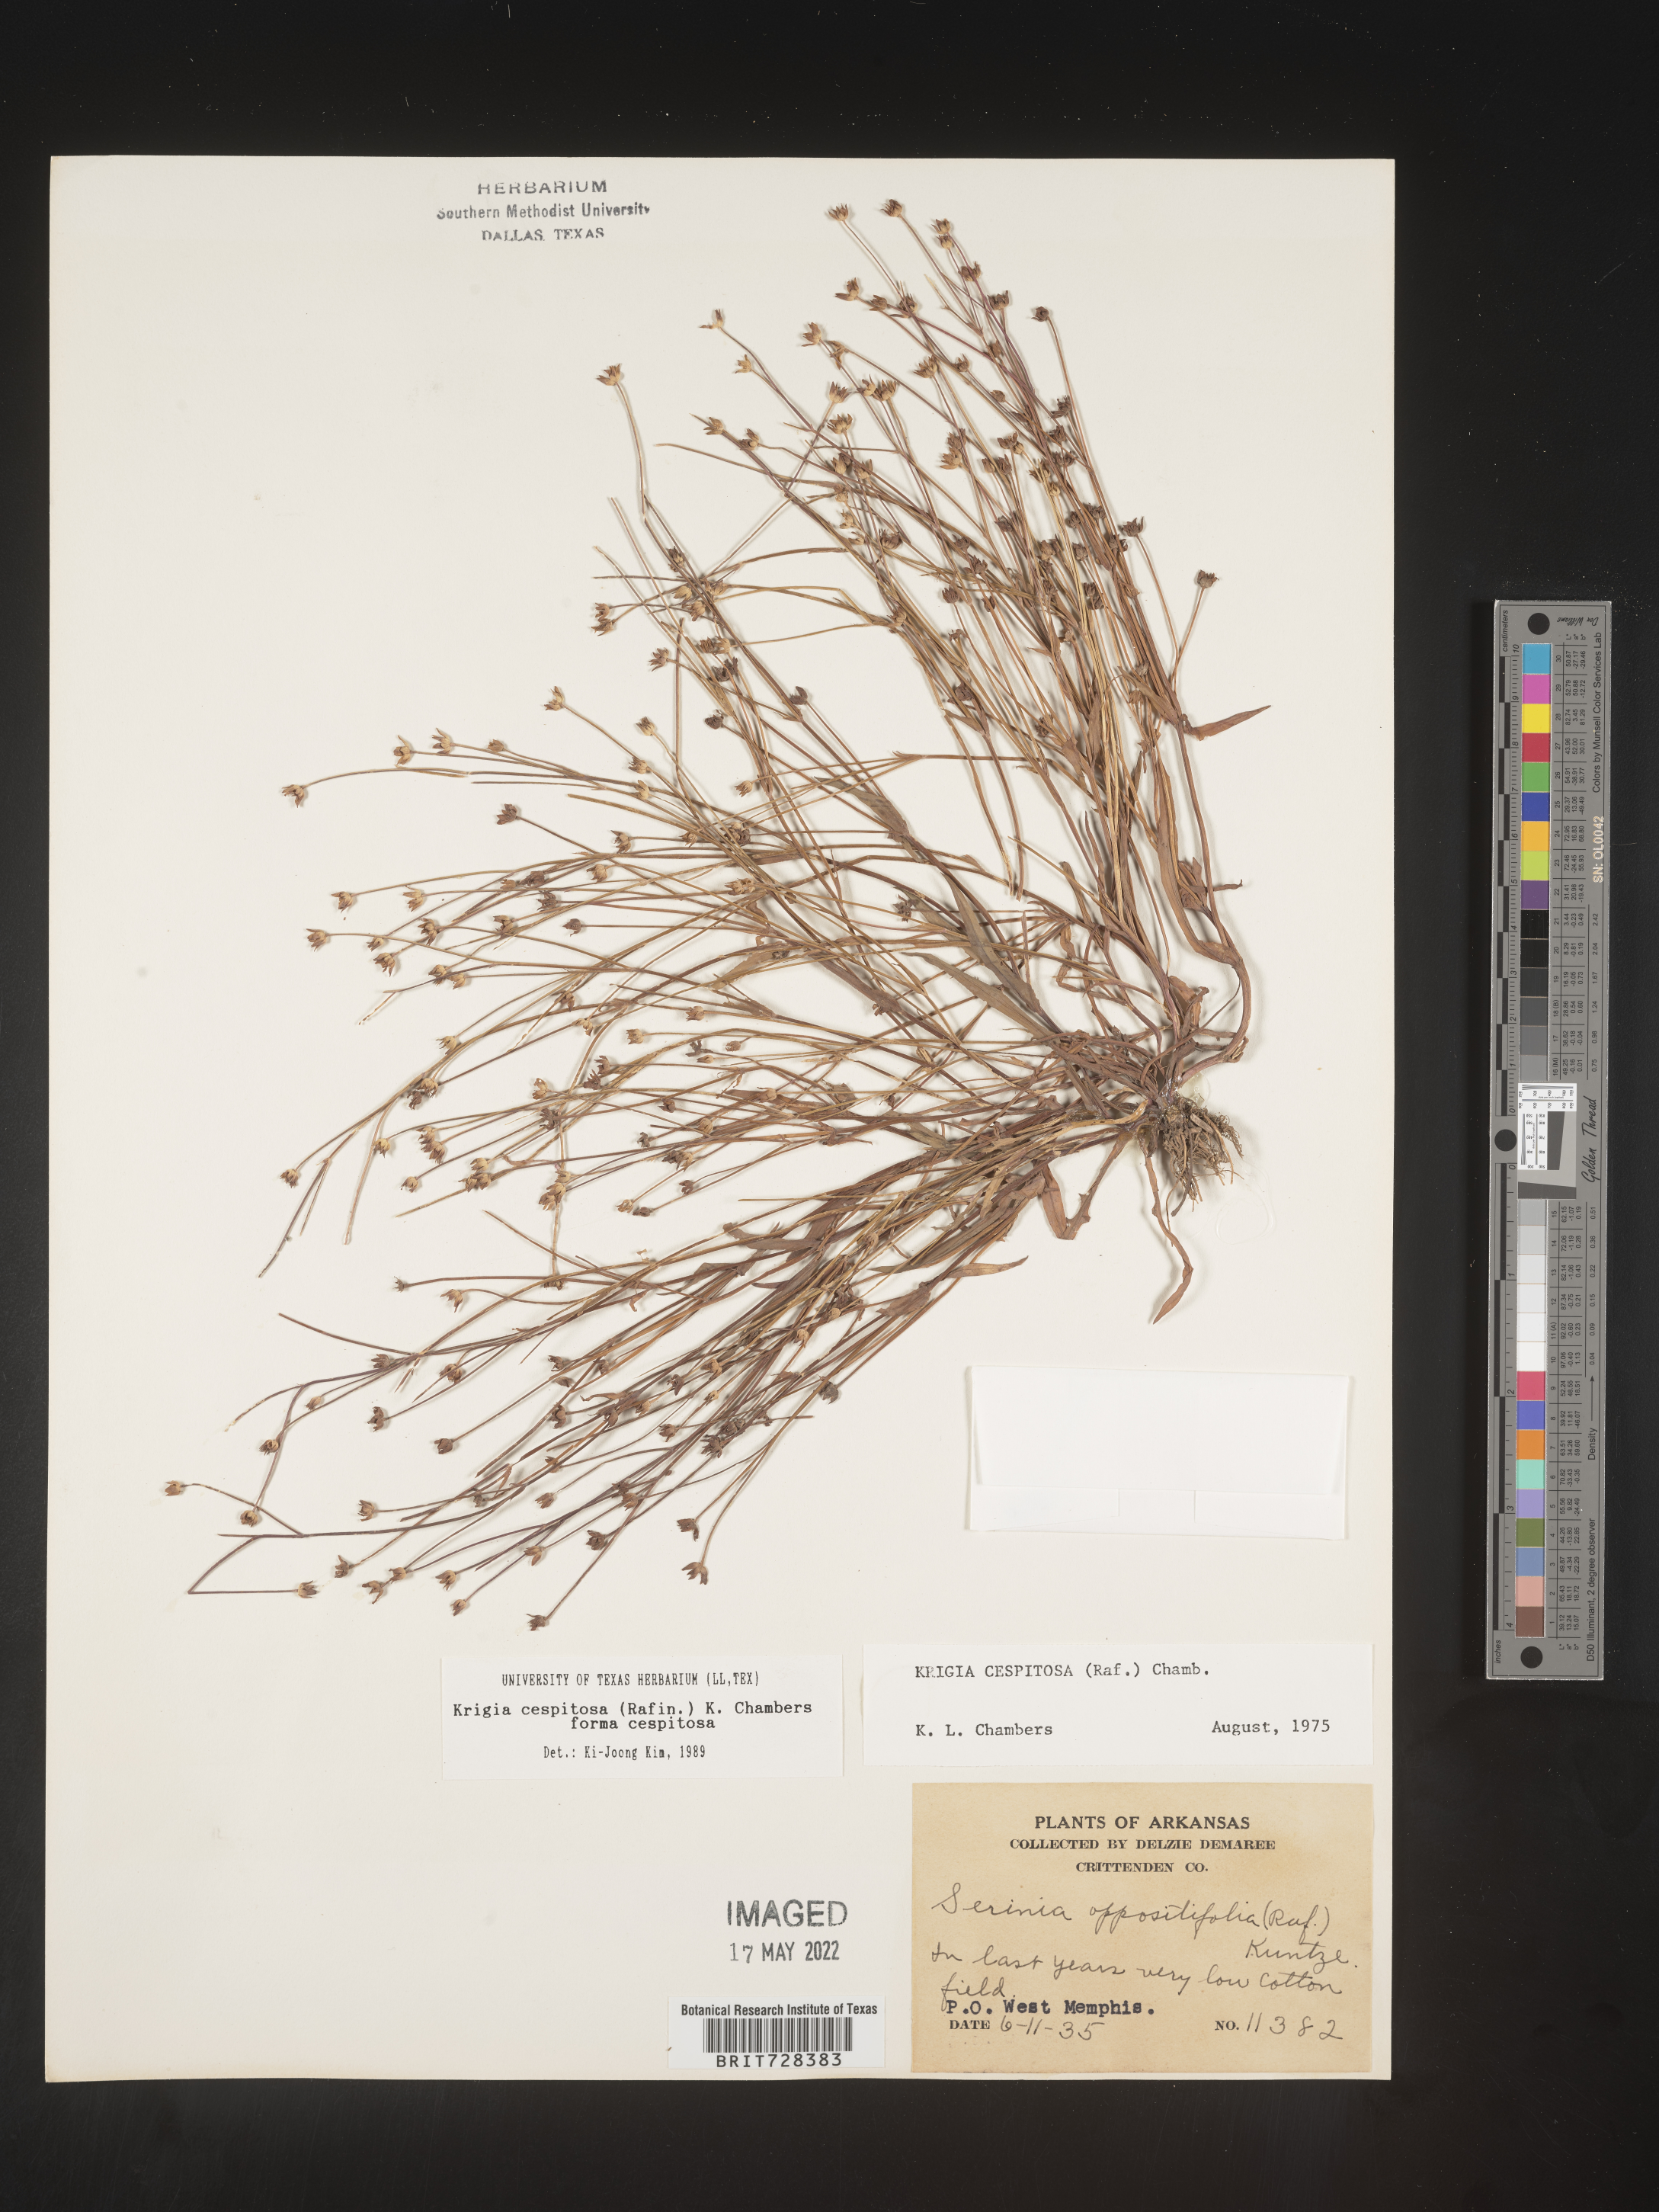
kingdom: Plantae
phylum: Tracheophyta
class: Magnoliopsida
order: Asterales
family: Asteraceae
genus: Krigia
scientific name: Krigia caespitosa
